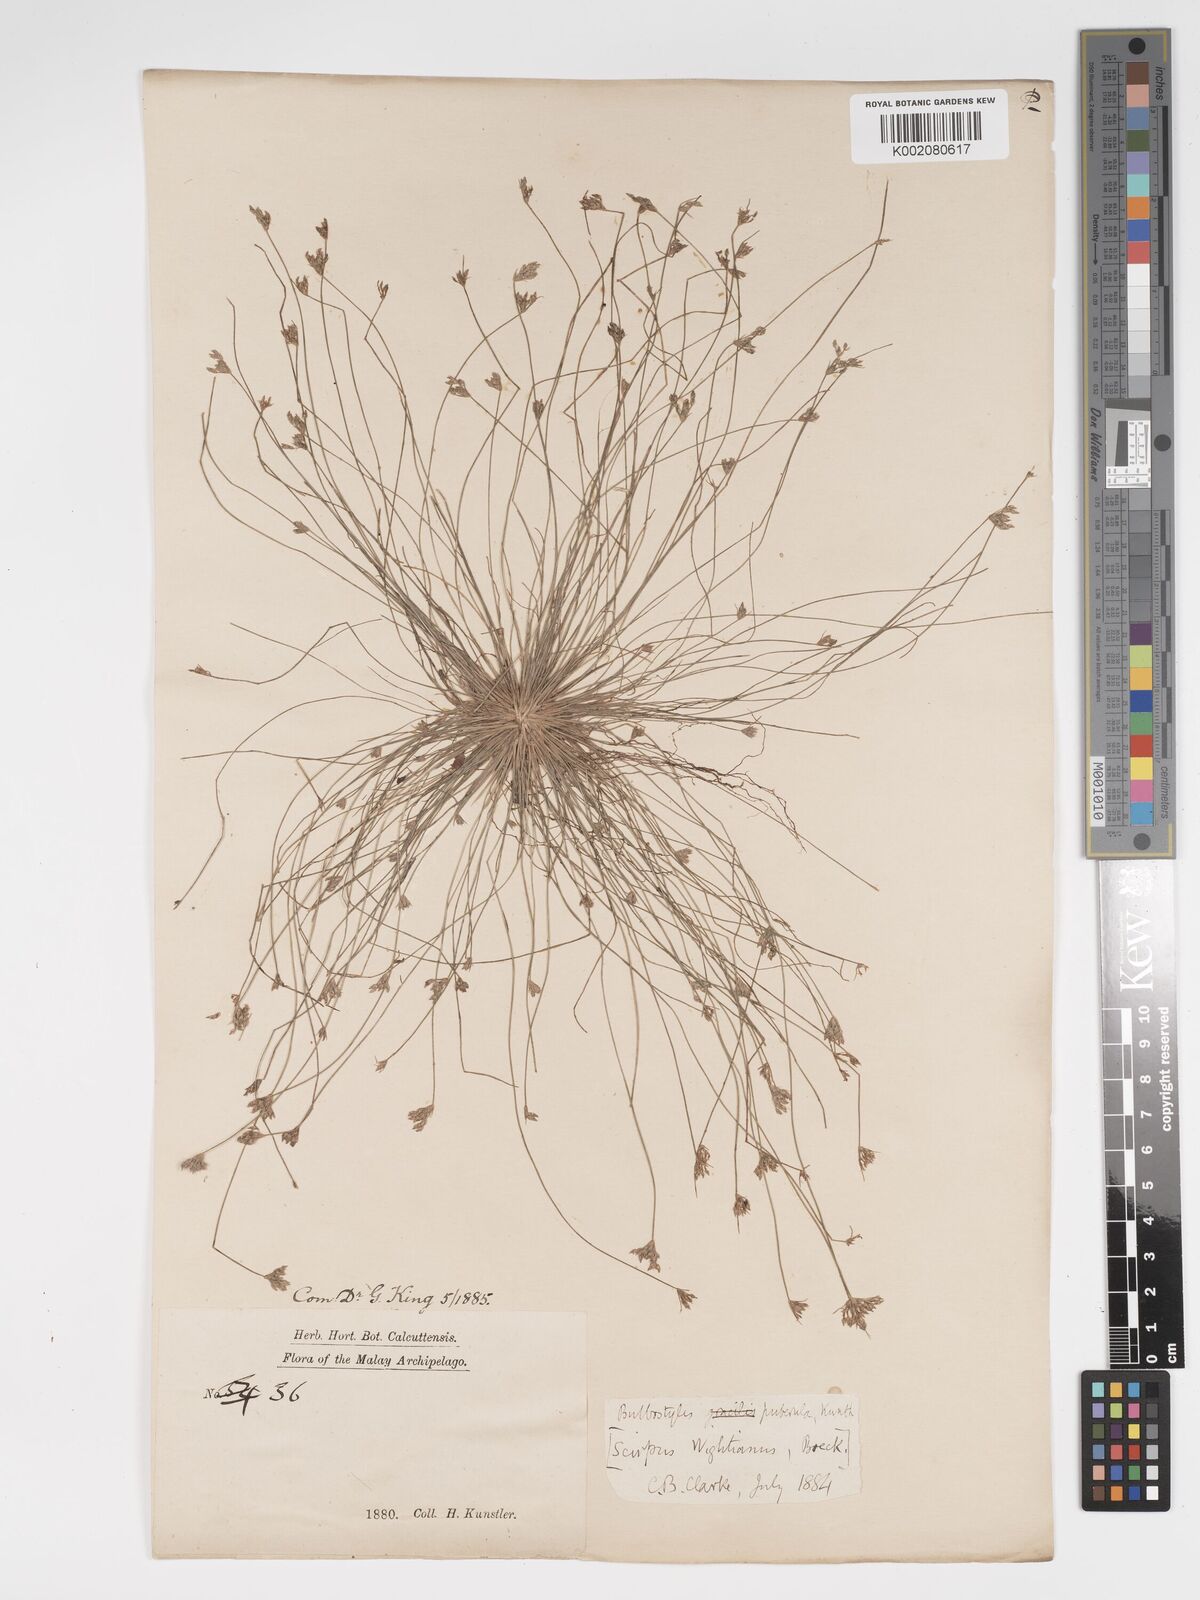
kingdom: Plantae
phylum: Tracheophyta
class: Liliopsida
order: Poales
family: Cyperaceae
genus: Bulbostylis
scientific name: Bulbostylis thouarsii
